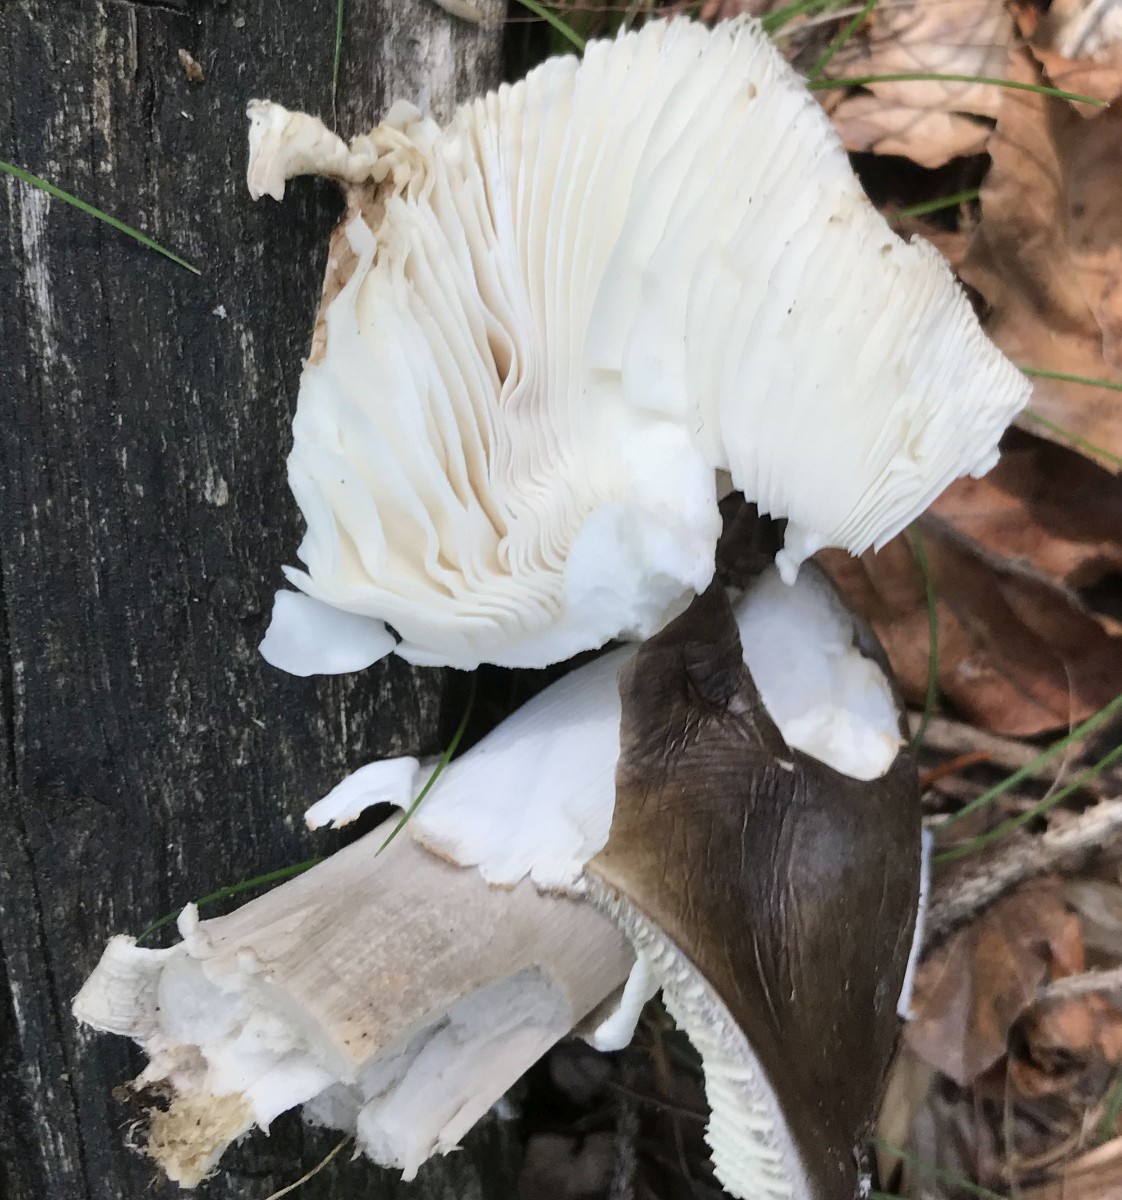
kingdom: Fungi
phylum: Basidiomycota
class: Agaricomycetes
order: Agaricales
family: Amanitaceae
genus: Amanita
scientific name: Amanita
